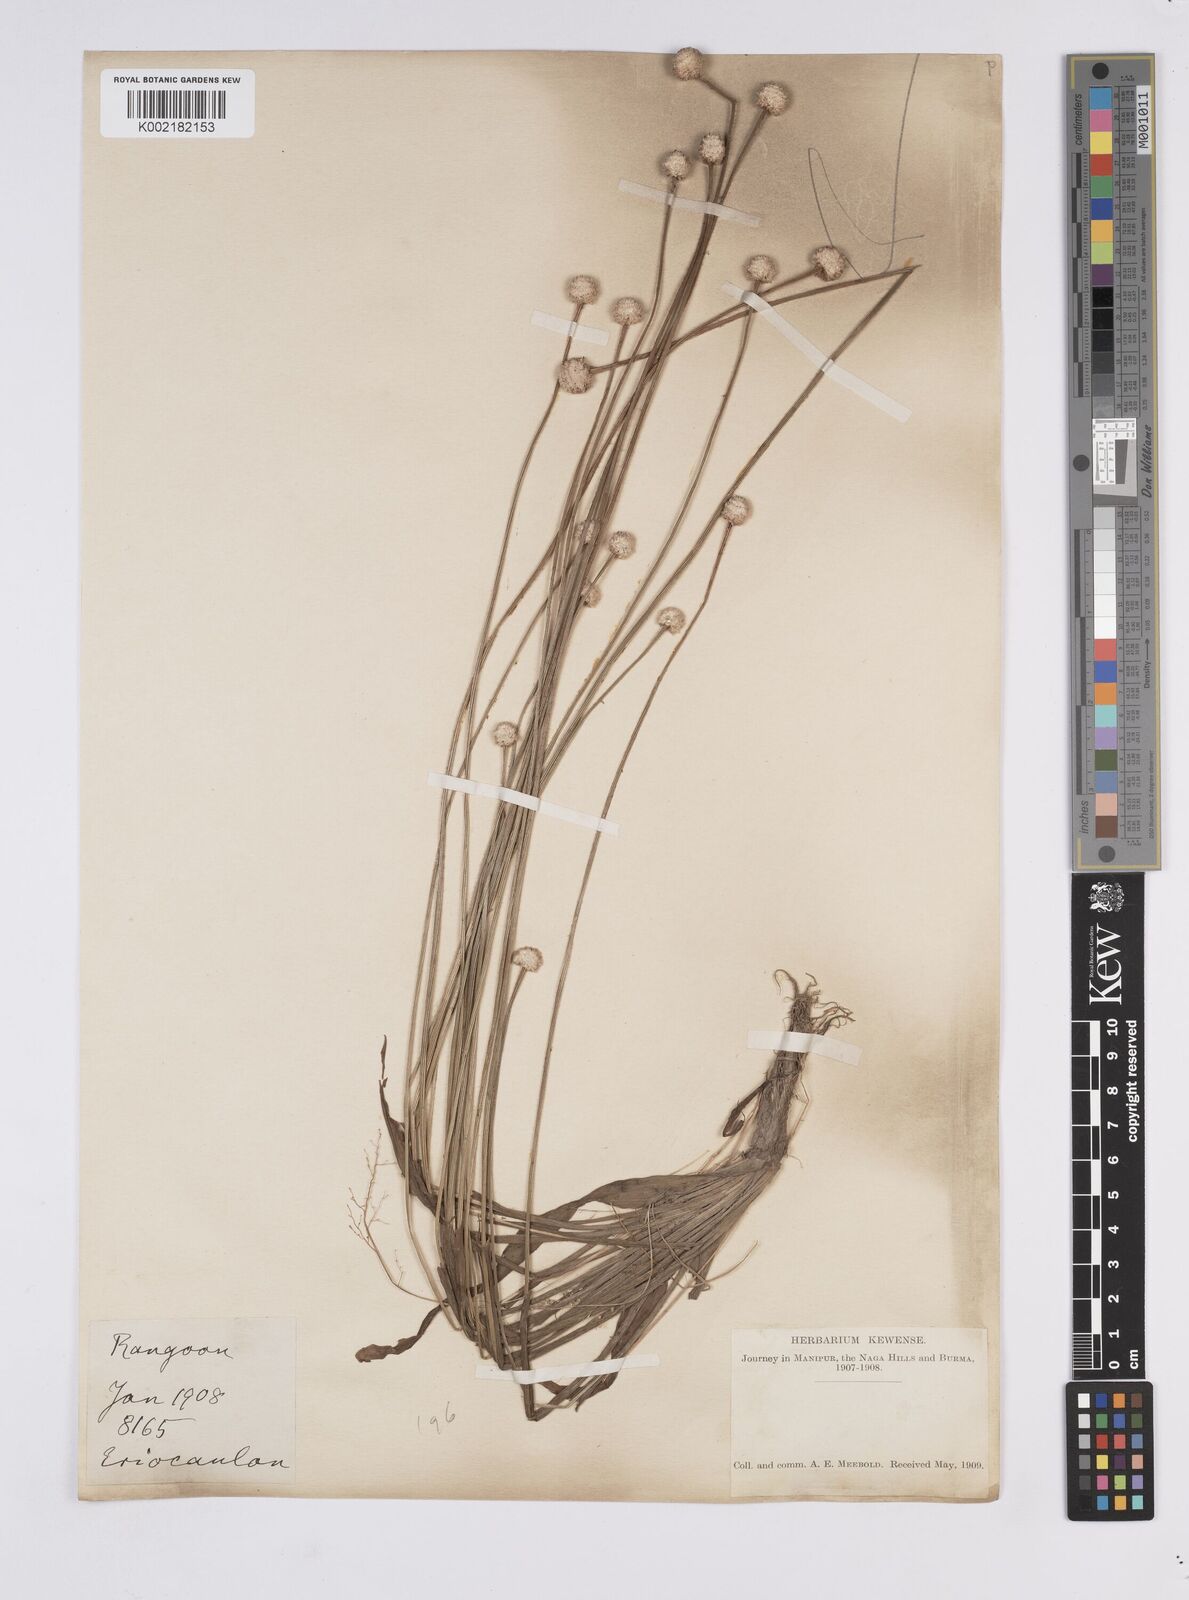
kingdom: Plantae
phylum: Tracheophyta
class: Liliopsida
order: Poales
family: Eriocaulaceae
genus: Eriocaulon
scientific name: Eriocaulon
